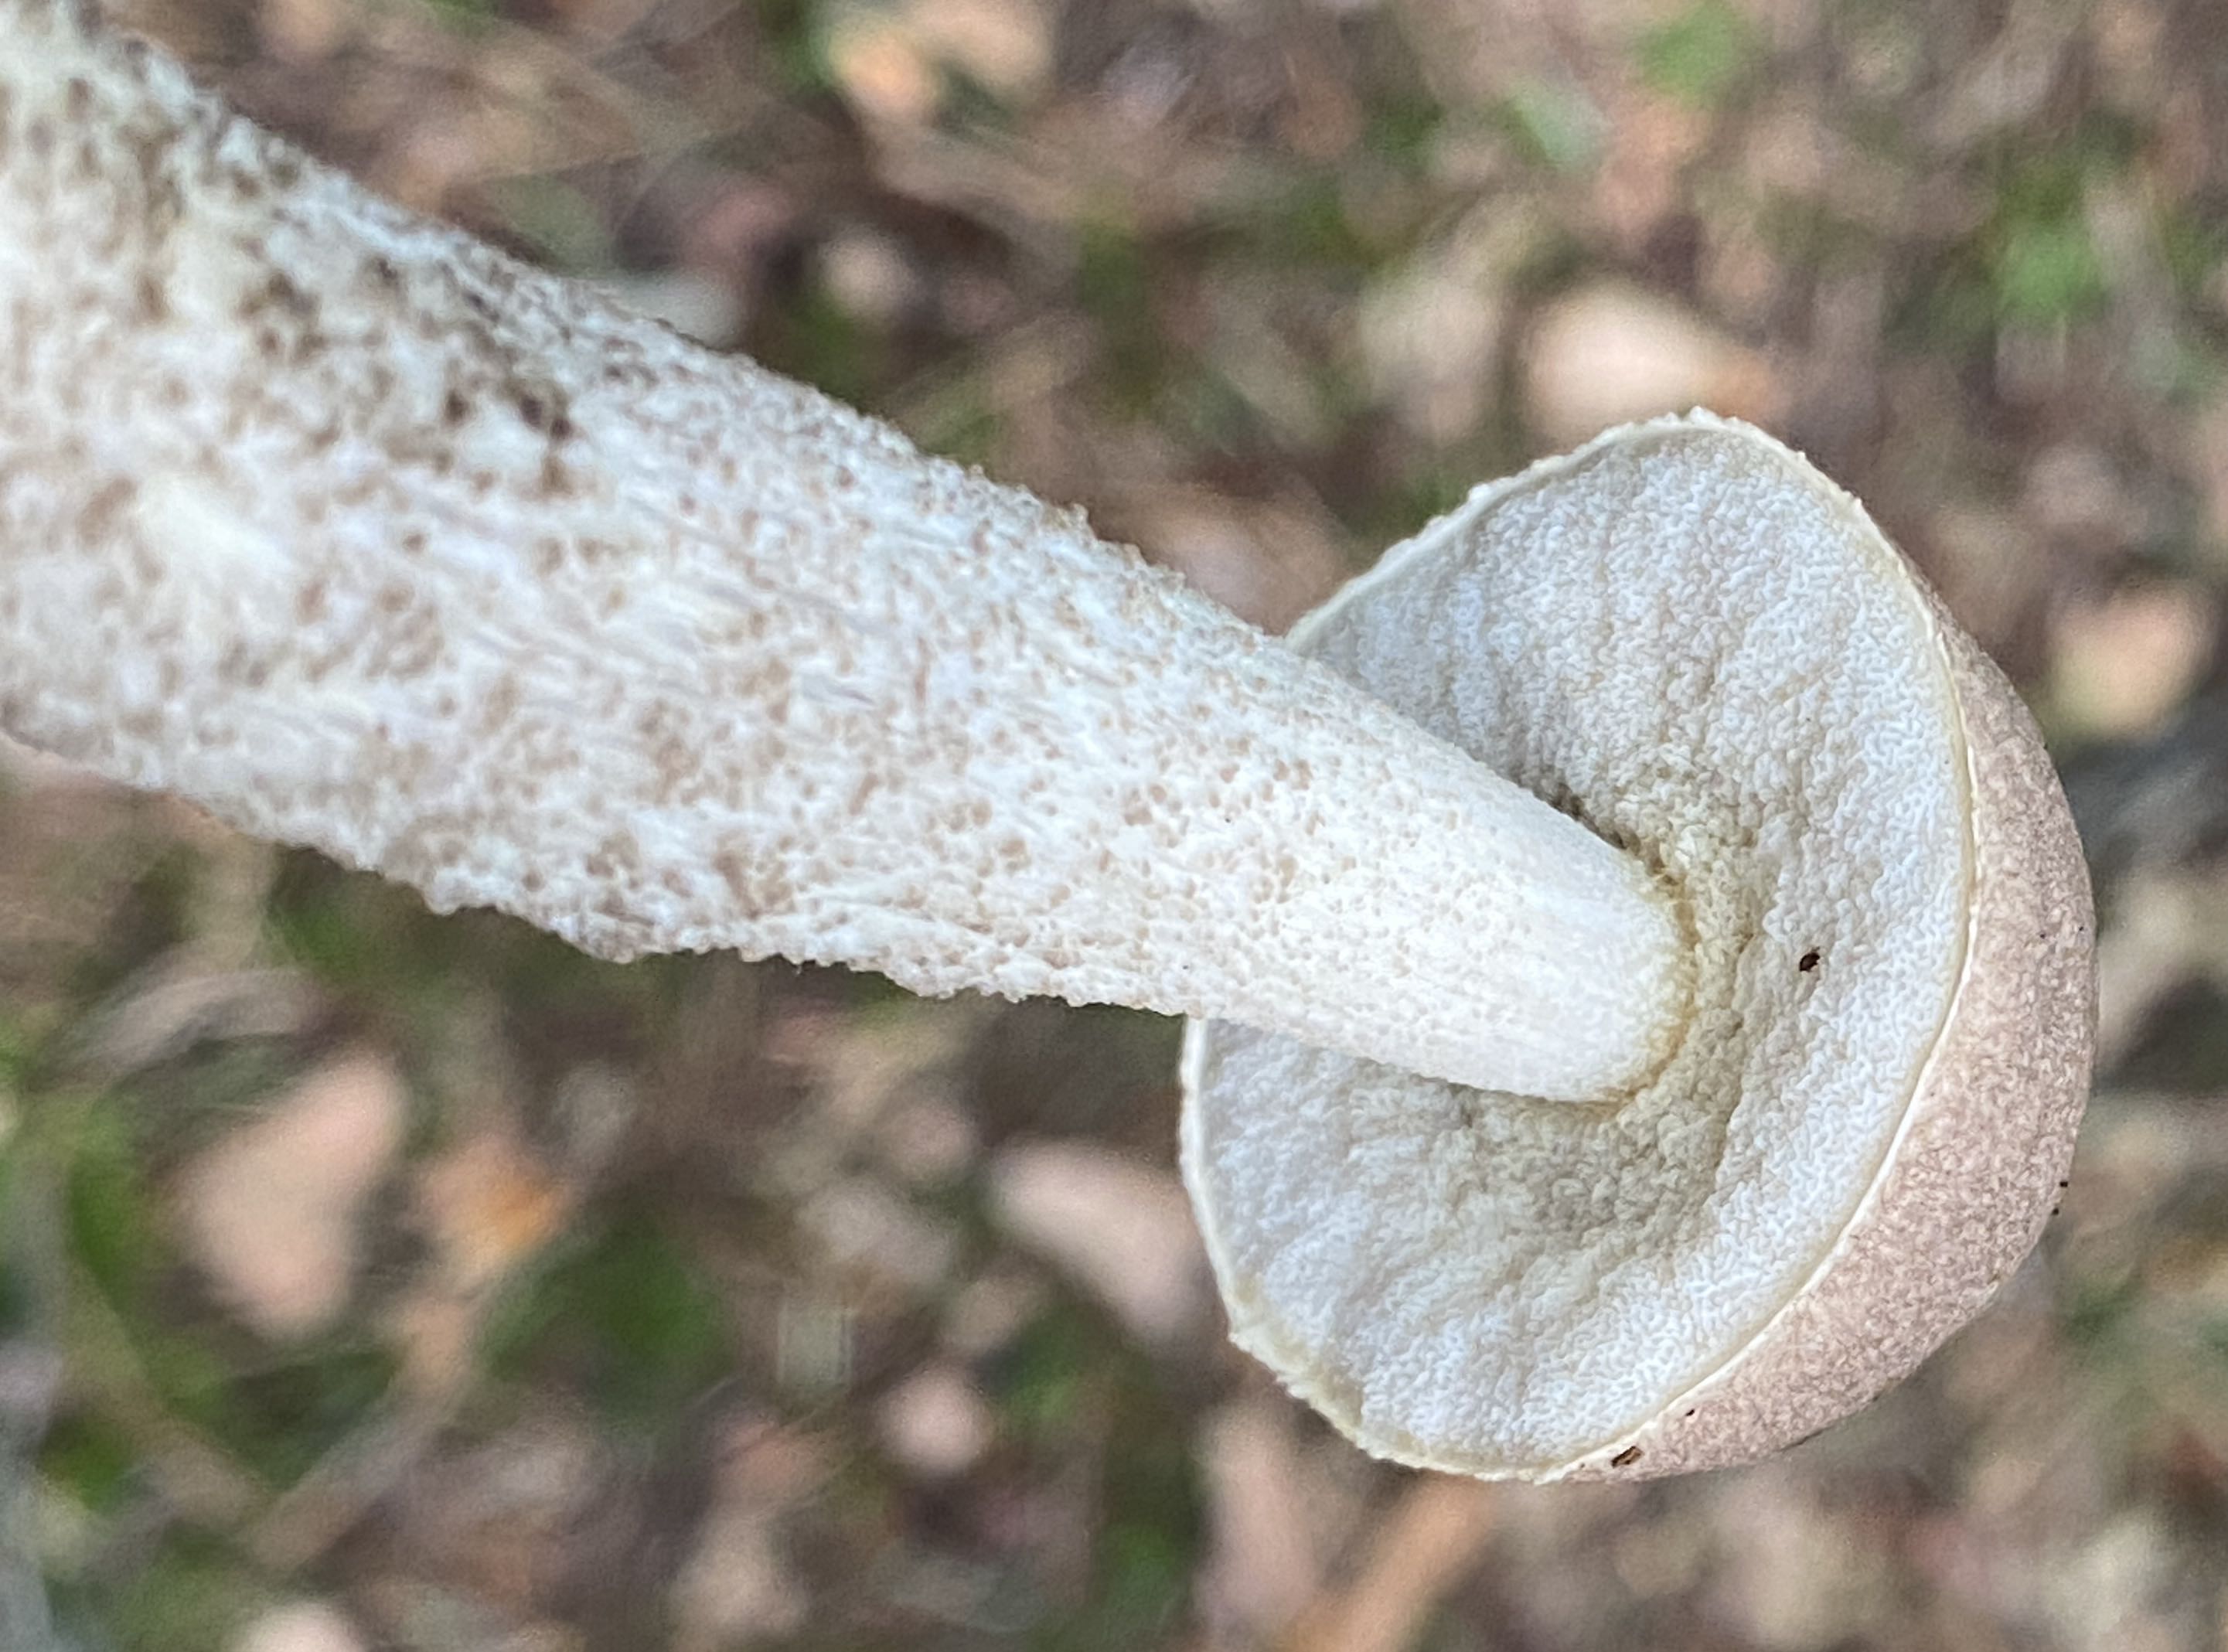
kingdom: Fungi
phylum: Basidiomycota
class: Agaricomycetes
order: Boletales
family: Boletaceae
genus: Leccinum
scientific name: Leccinum
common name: skælrørhat
